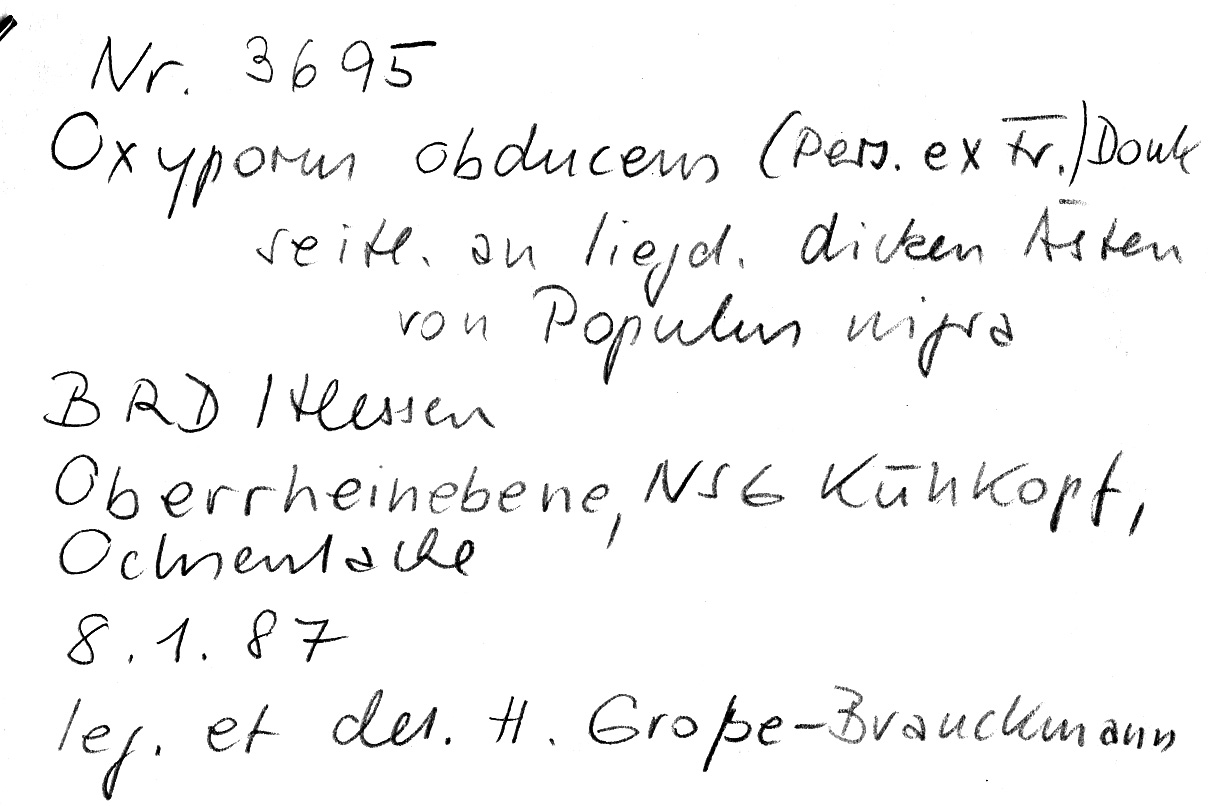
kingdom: Fungi
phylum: Basidiomycota
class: Agaricomycetes
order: Hymenochaetales
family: Oxyporaceae
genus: Oxyporus
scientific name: Oxyporus obducens
